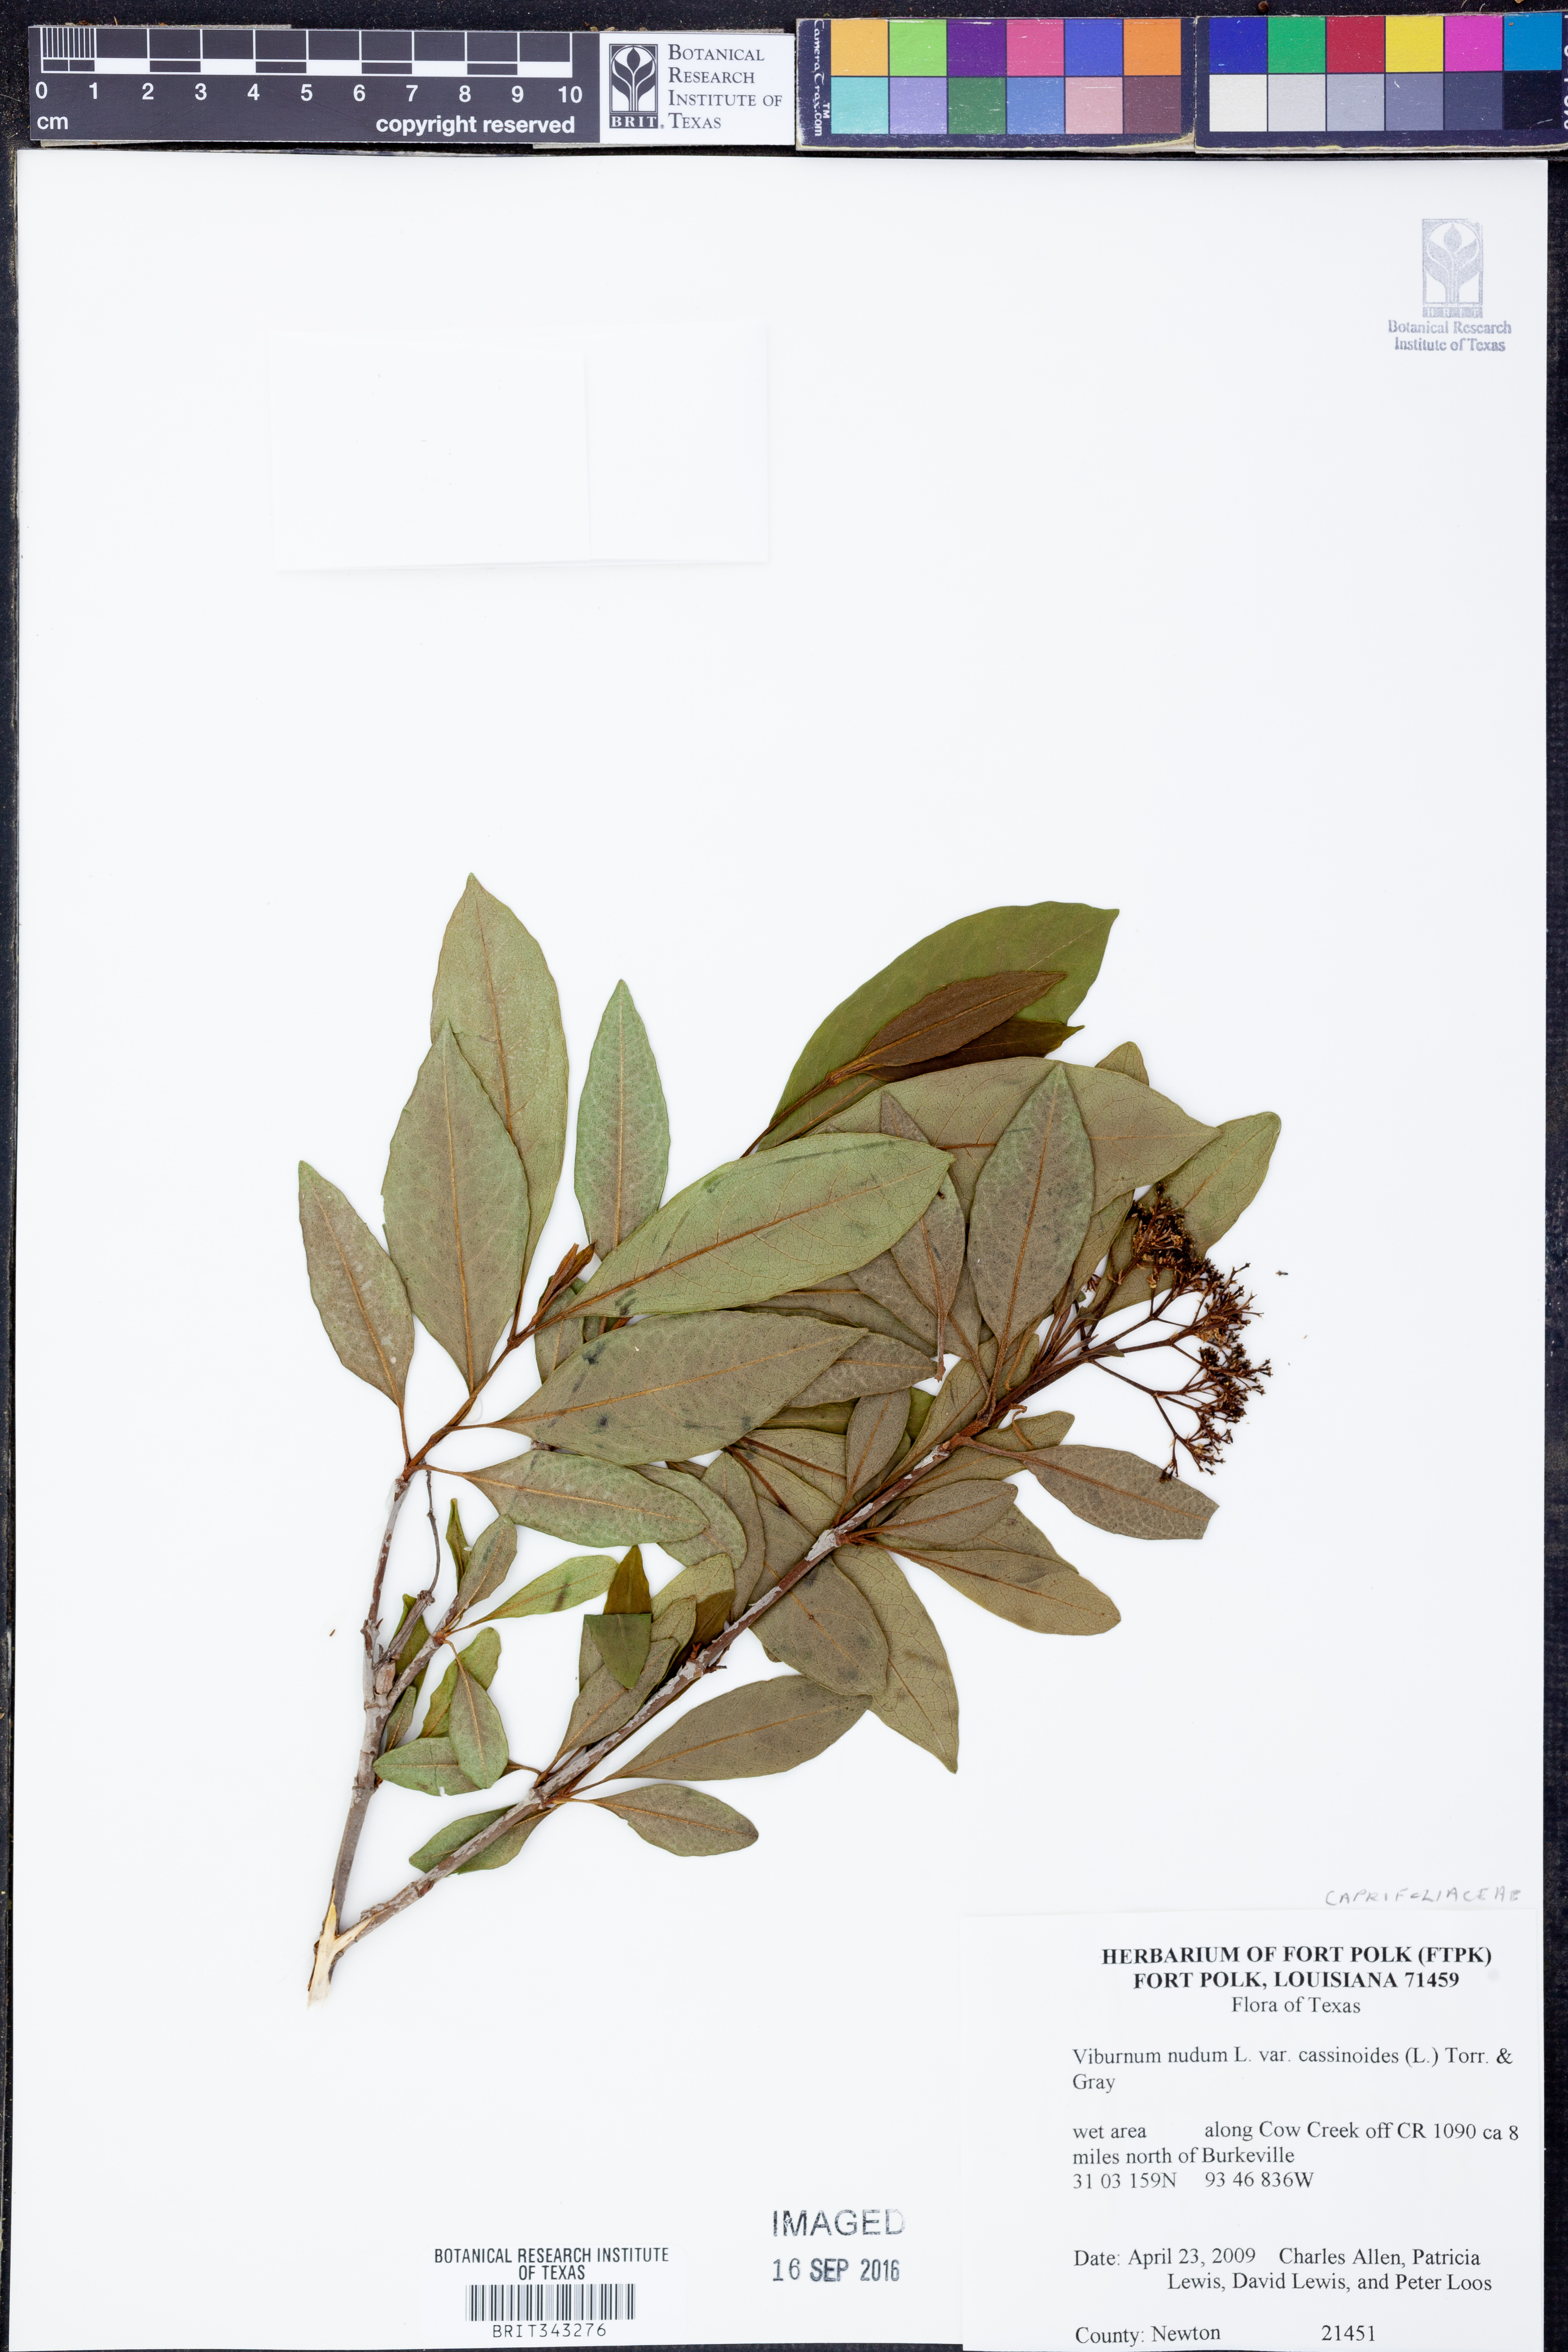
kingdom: Plantae
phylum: Tracheophyta
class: Magnoliopsida
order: Dipsacales
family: Viburnaceae
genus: Viburnum
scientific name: Viburnum cassinoides
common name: Swamp haw
